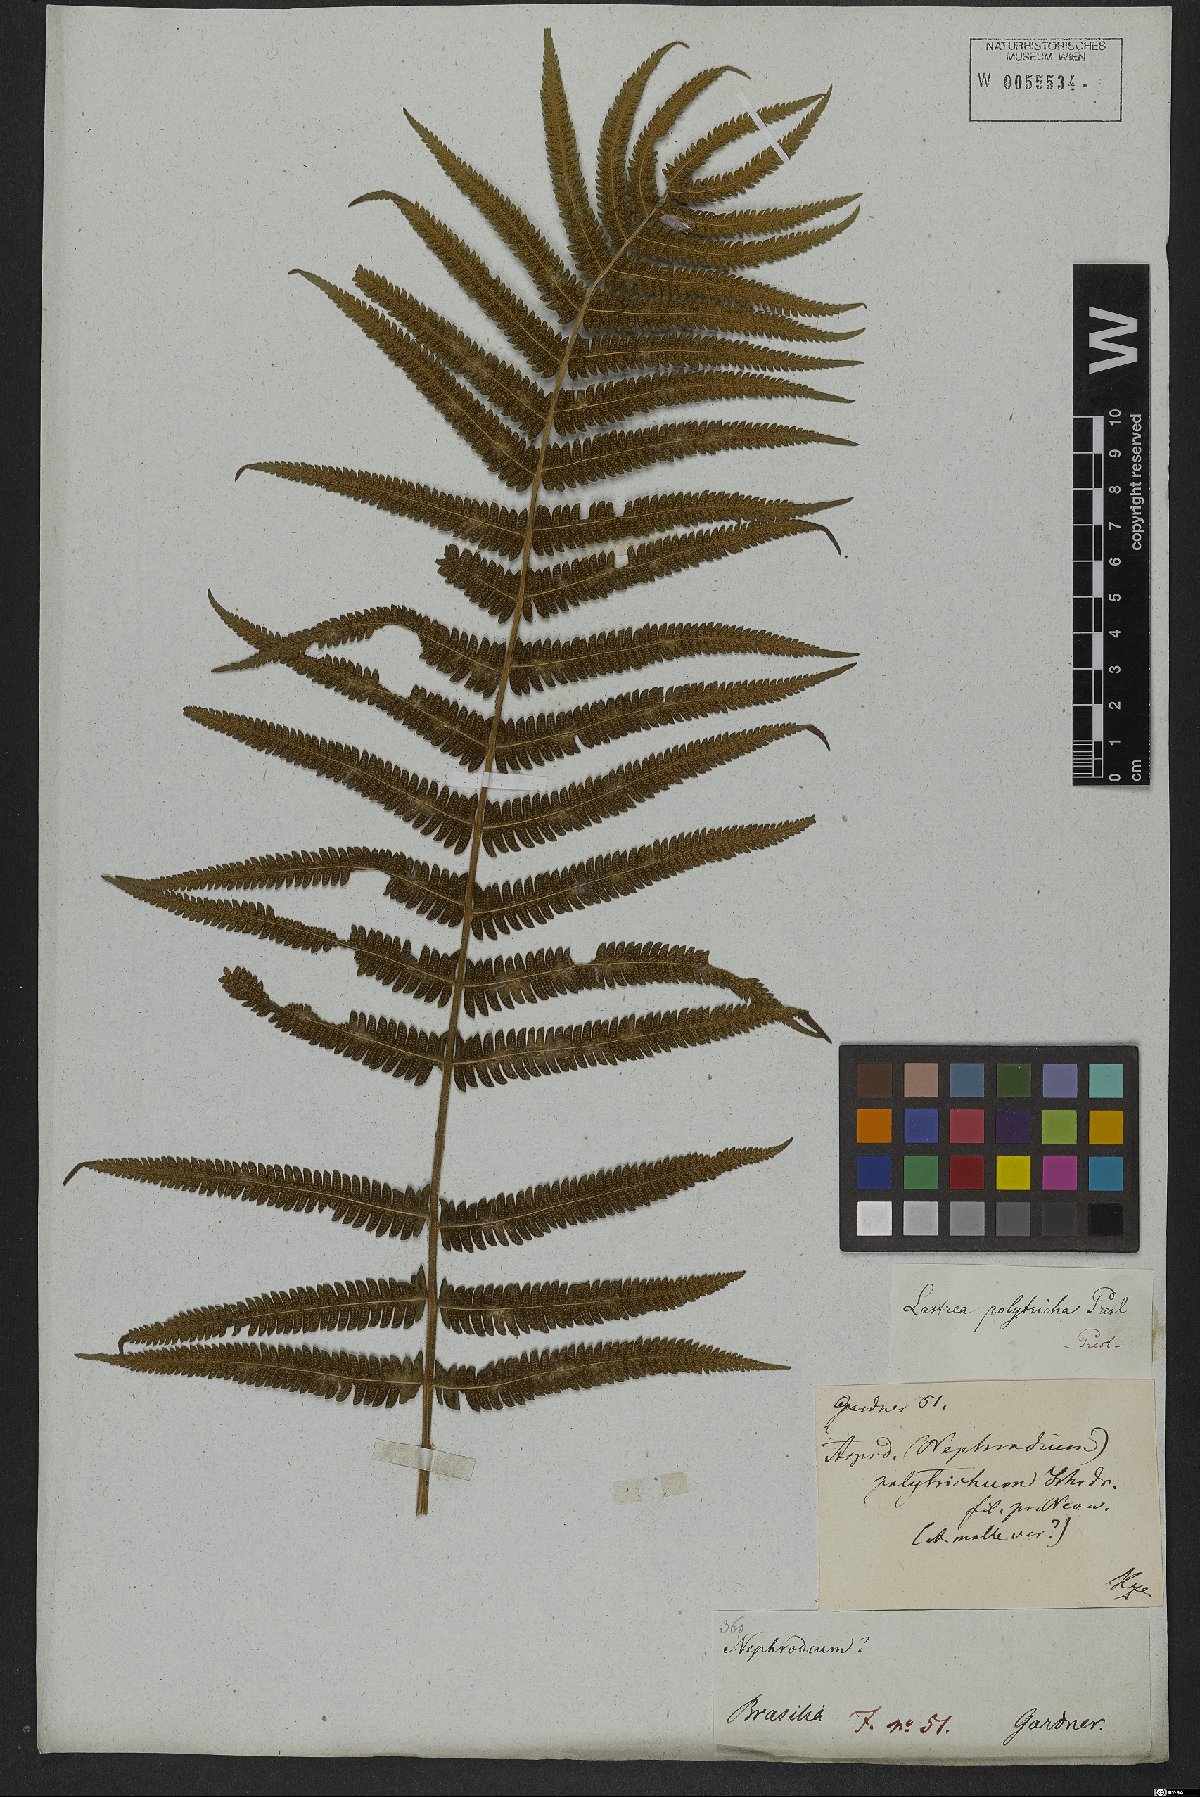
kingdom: Plantae
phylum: Tracheophyta
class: Polypodiopsida
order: Polypodiales
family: Thelypteridaceae
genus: Christella
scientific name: Christella parasitica
